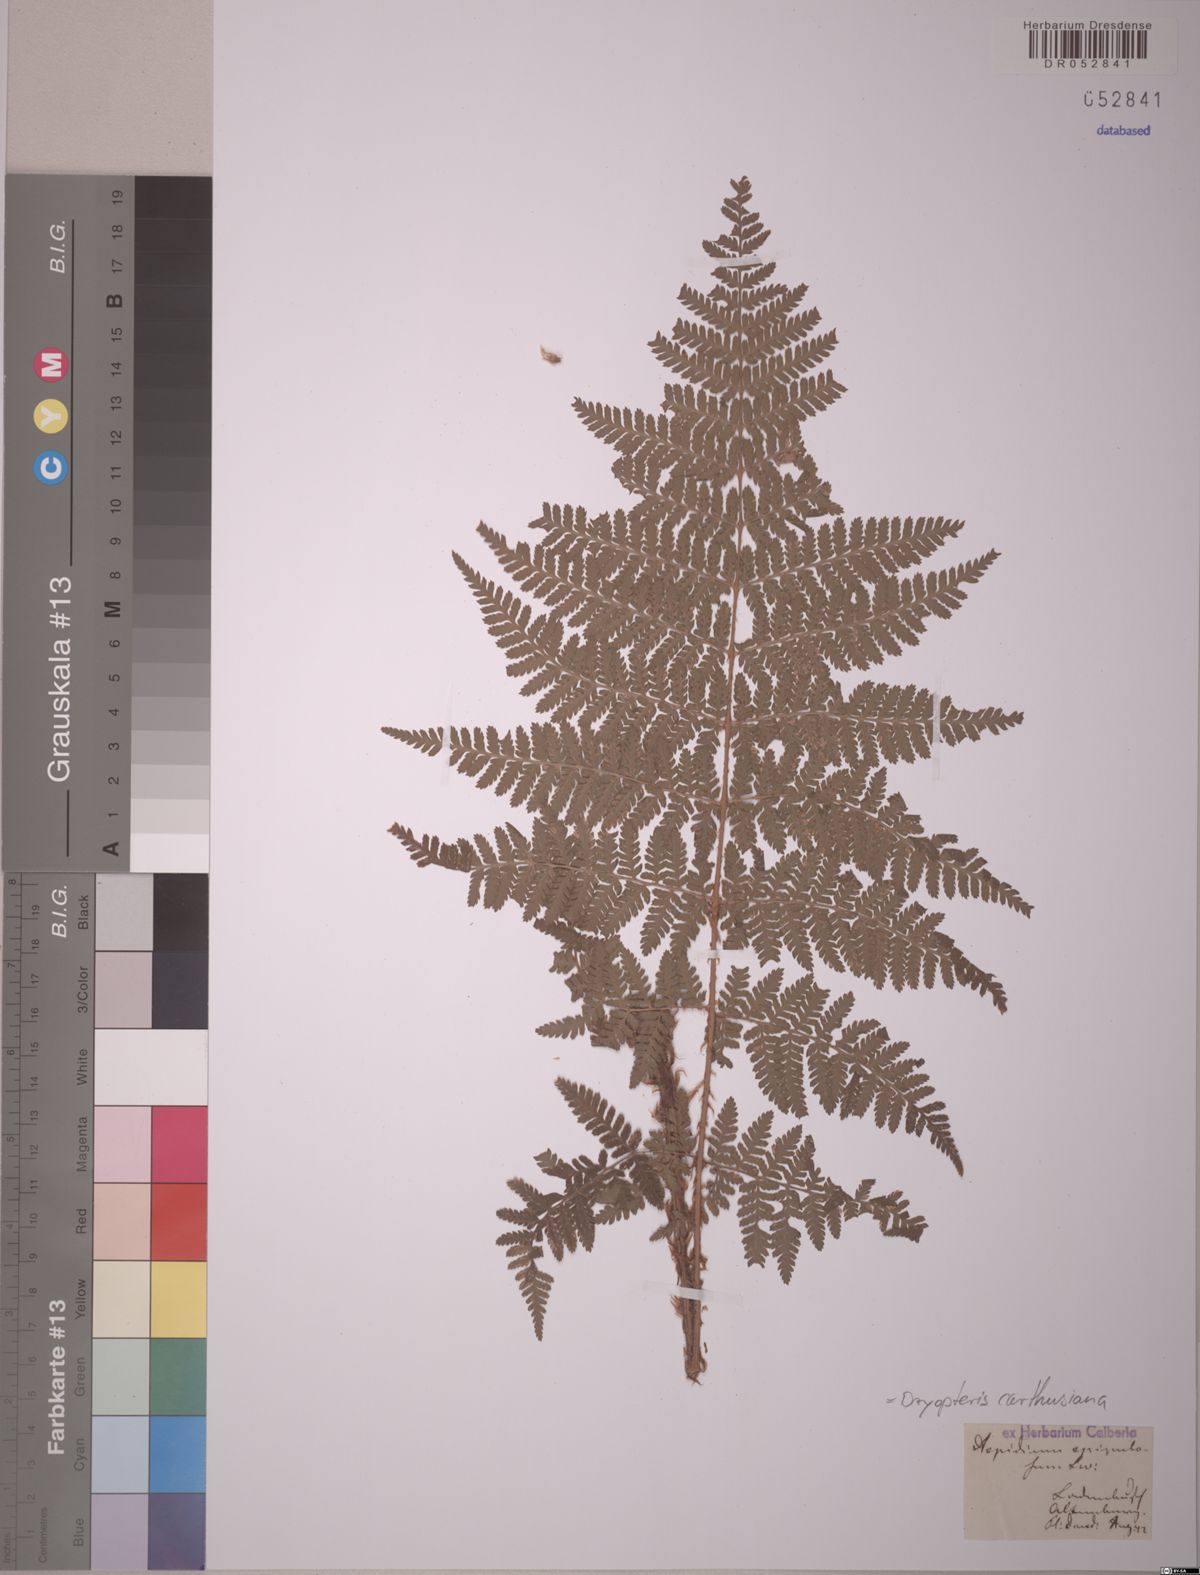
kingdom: Plantae
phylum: Tracheophyta
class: Polypodiopsida
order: Polypodiales
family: Dryopteridaceae
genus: Dryopteris
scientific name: Dryopteris carthusiana
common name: Narrow buckler-fern
